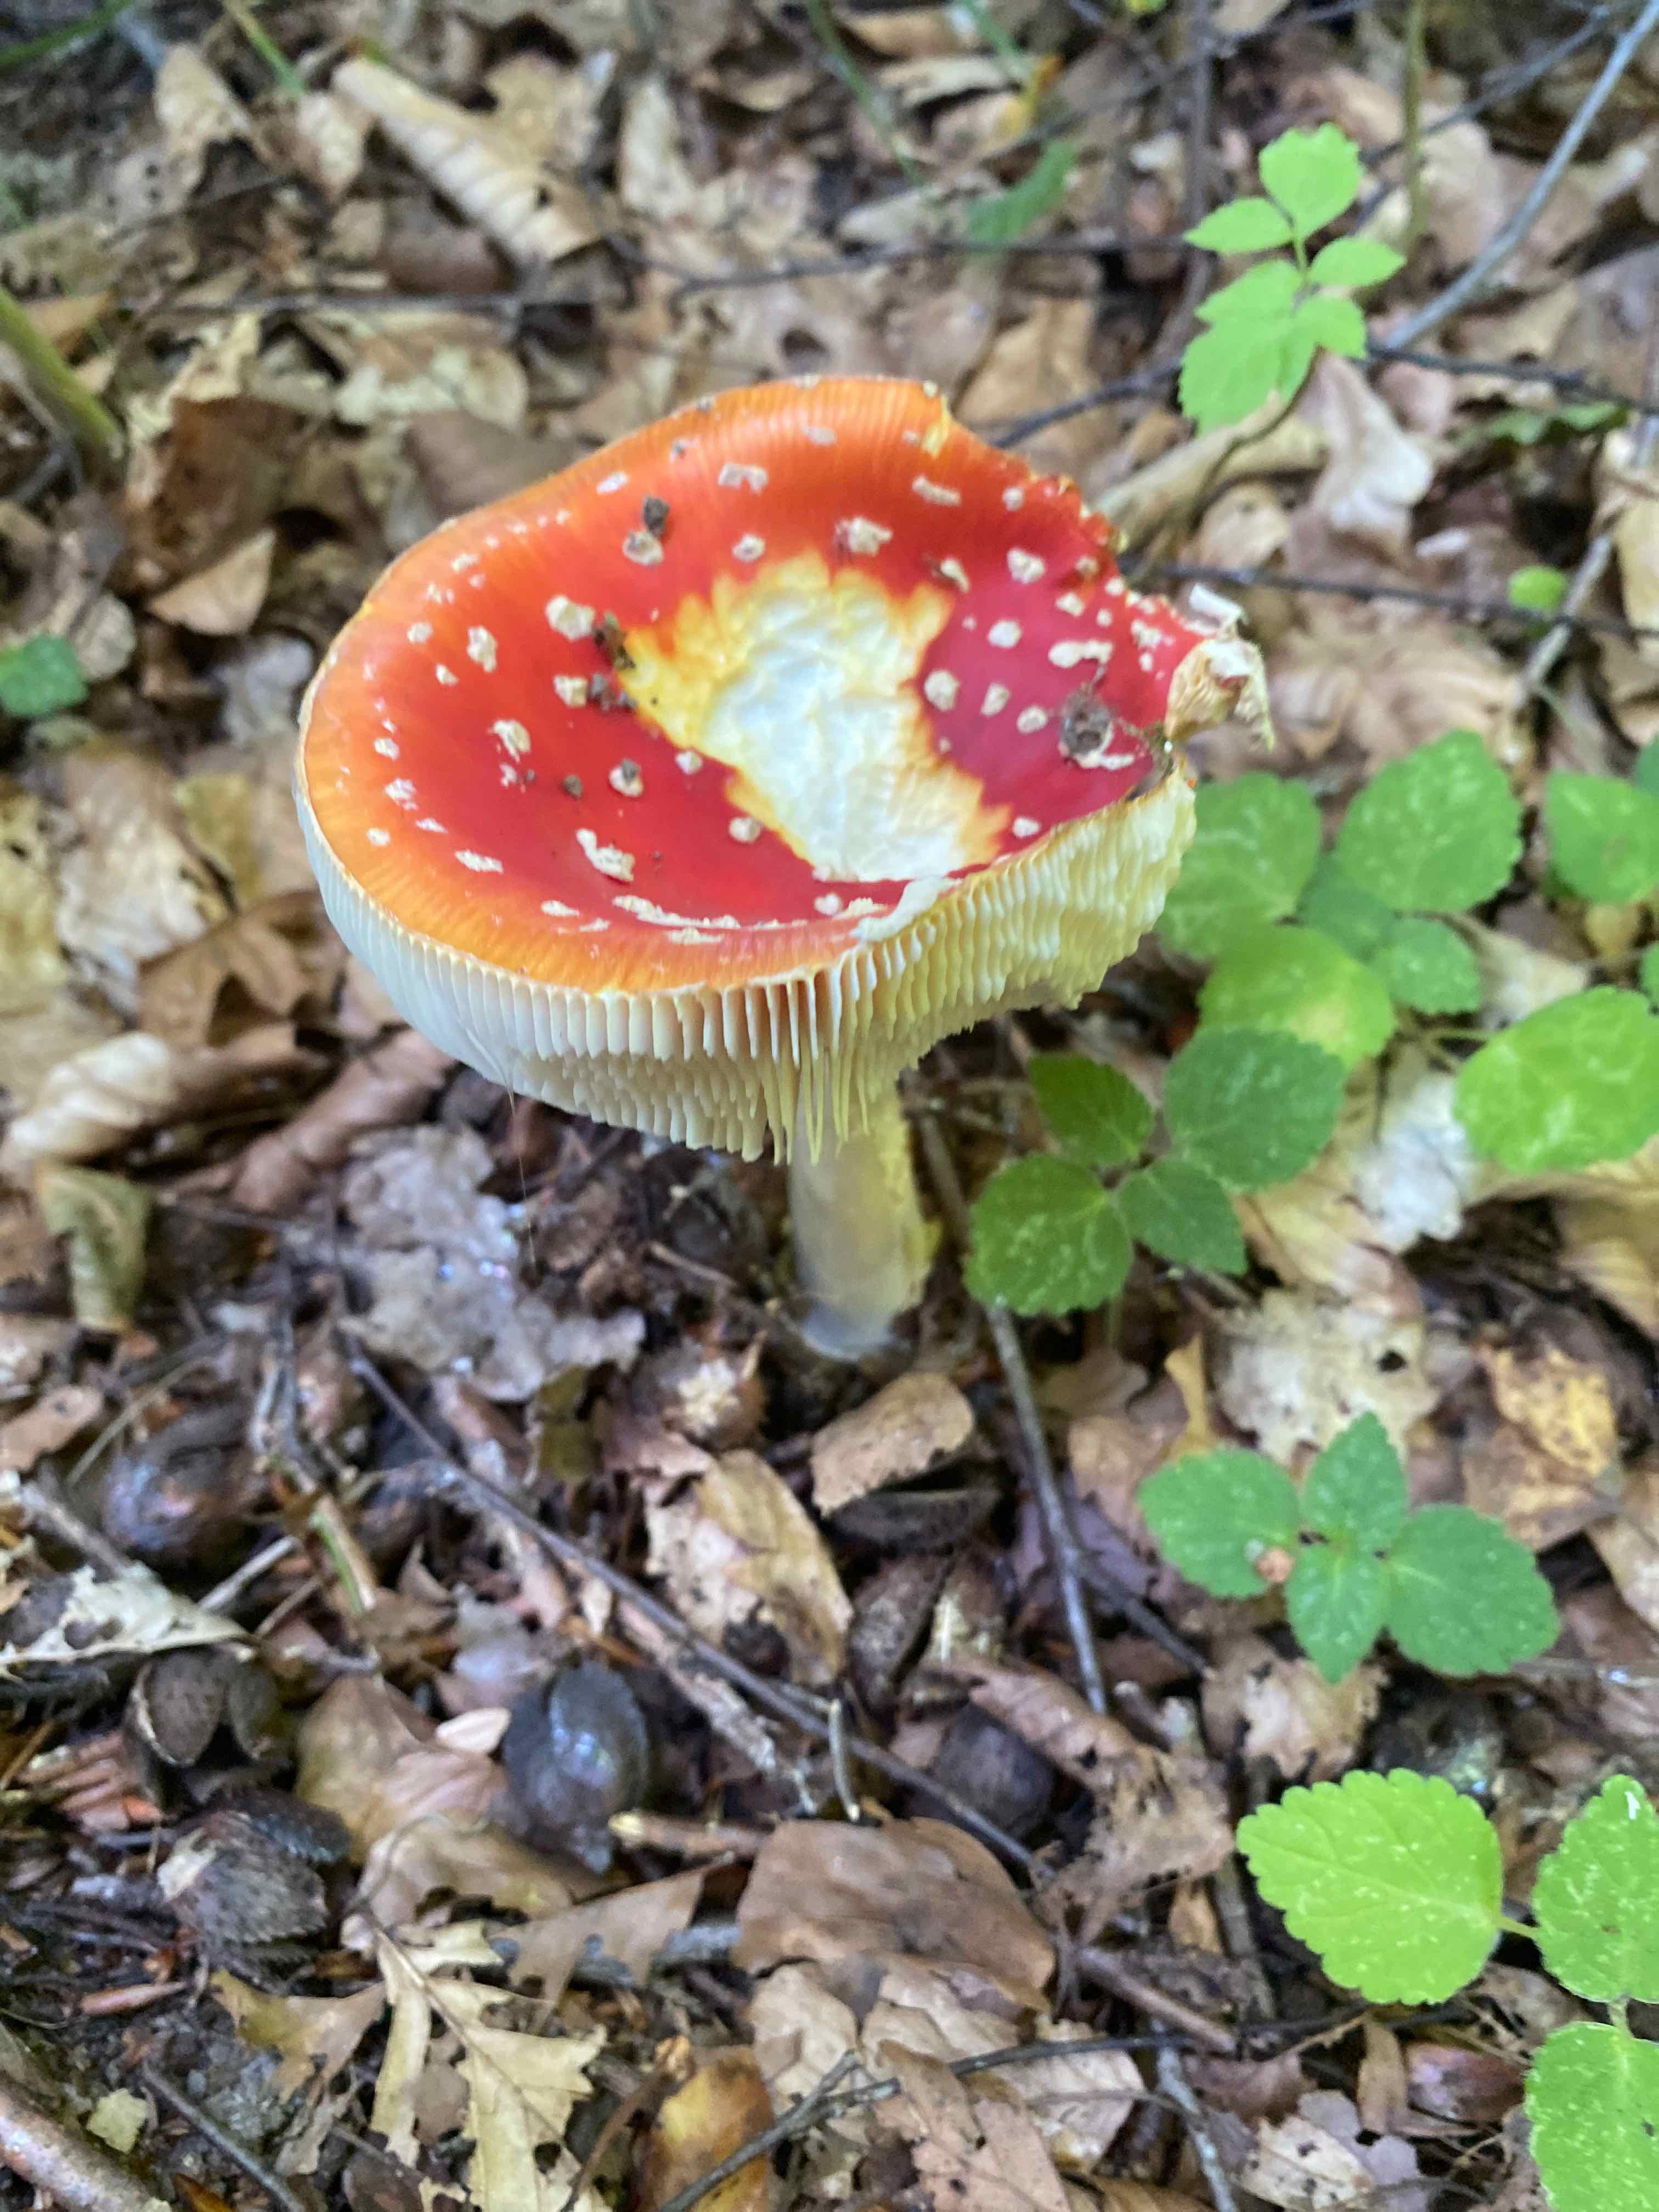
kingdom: Fungi
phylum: Basidiomycota
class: Agaricomycetes
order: Agaricales
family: Amanitaceae
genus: Amanita
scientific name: Amanita muscaria
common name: rød fluesvamp
